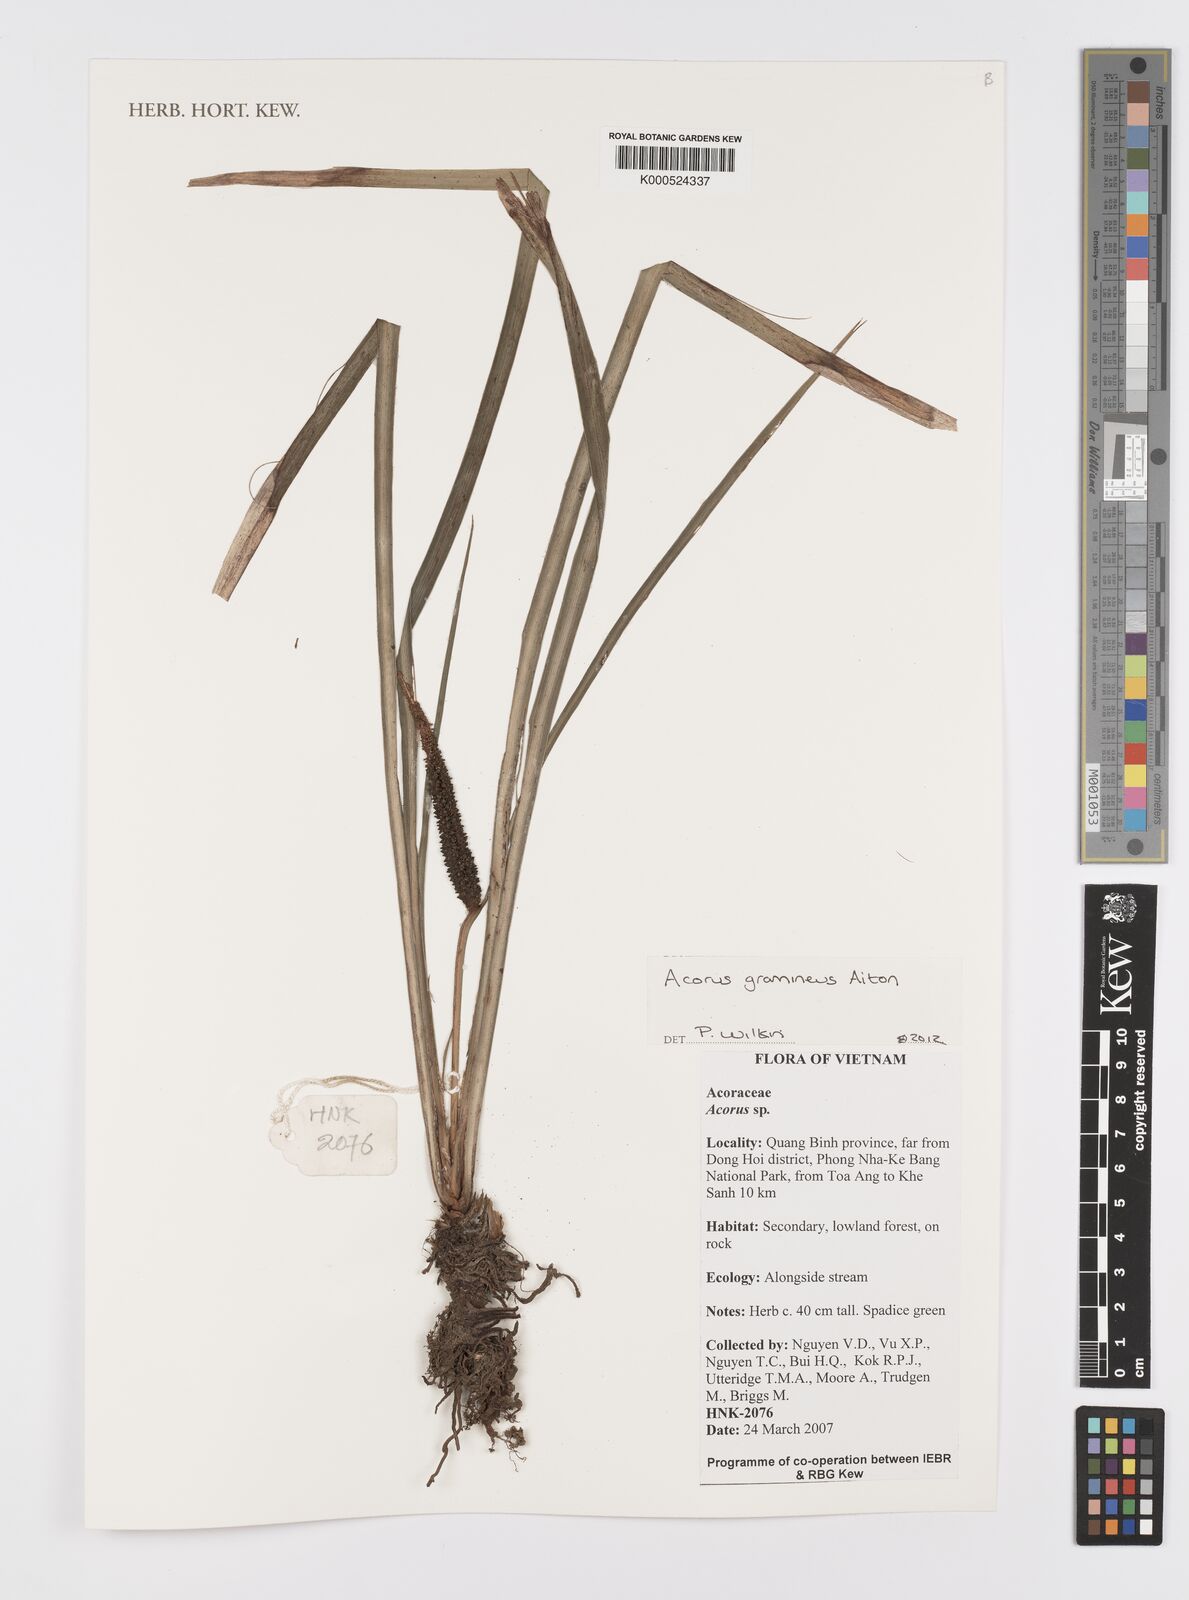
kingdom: Plantae
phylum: Tracheophyta
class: Liliopsida
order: Acorales
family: Acoraceae
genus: Acorus
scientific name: Acorus gramineus
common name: Slender sweet-flag
